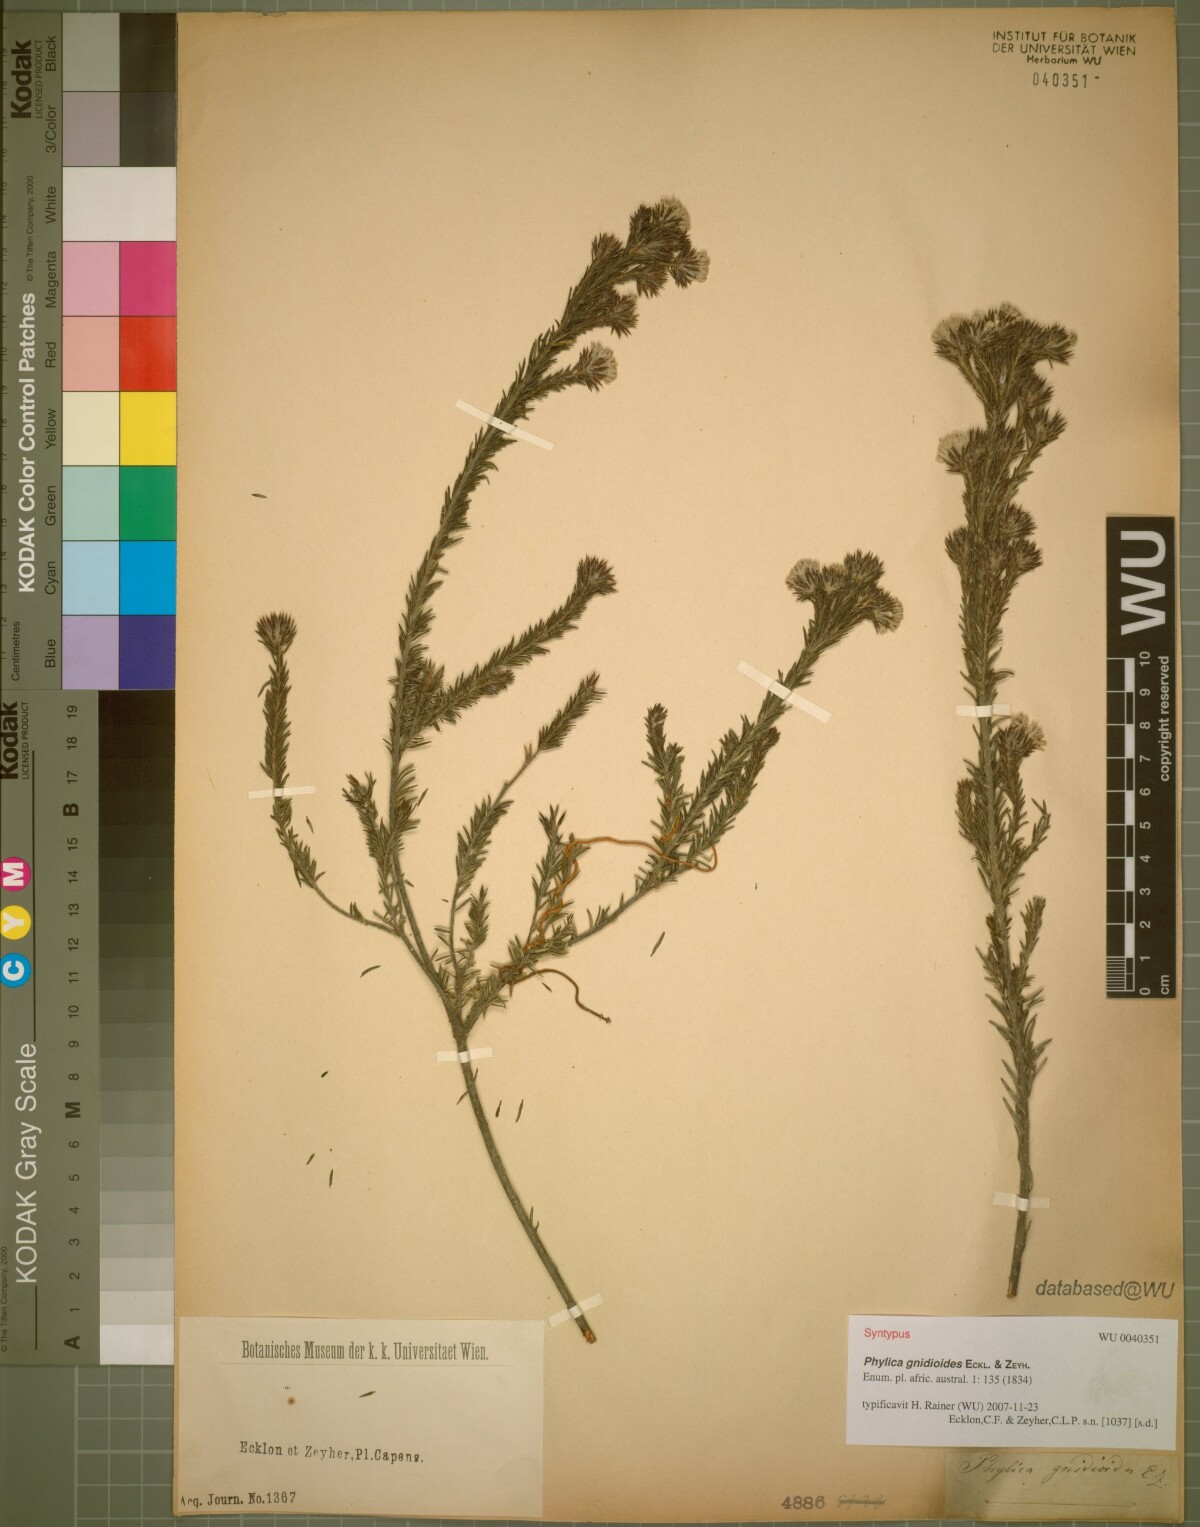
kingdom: Plantae
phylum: Tracheophyta
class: Magnoliopsida
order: Rosales
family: Rhamnaceae
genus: Phylica
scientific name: Phylica gnidioides
